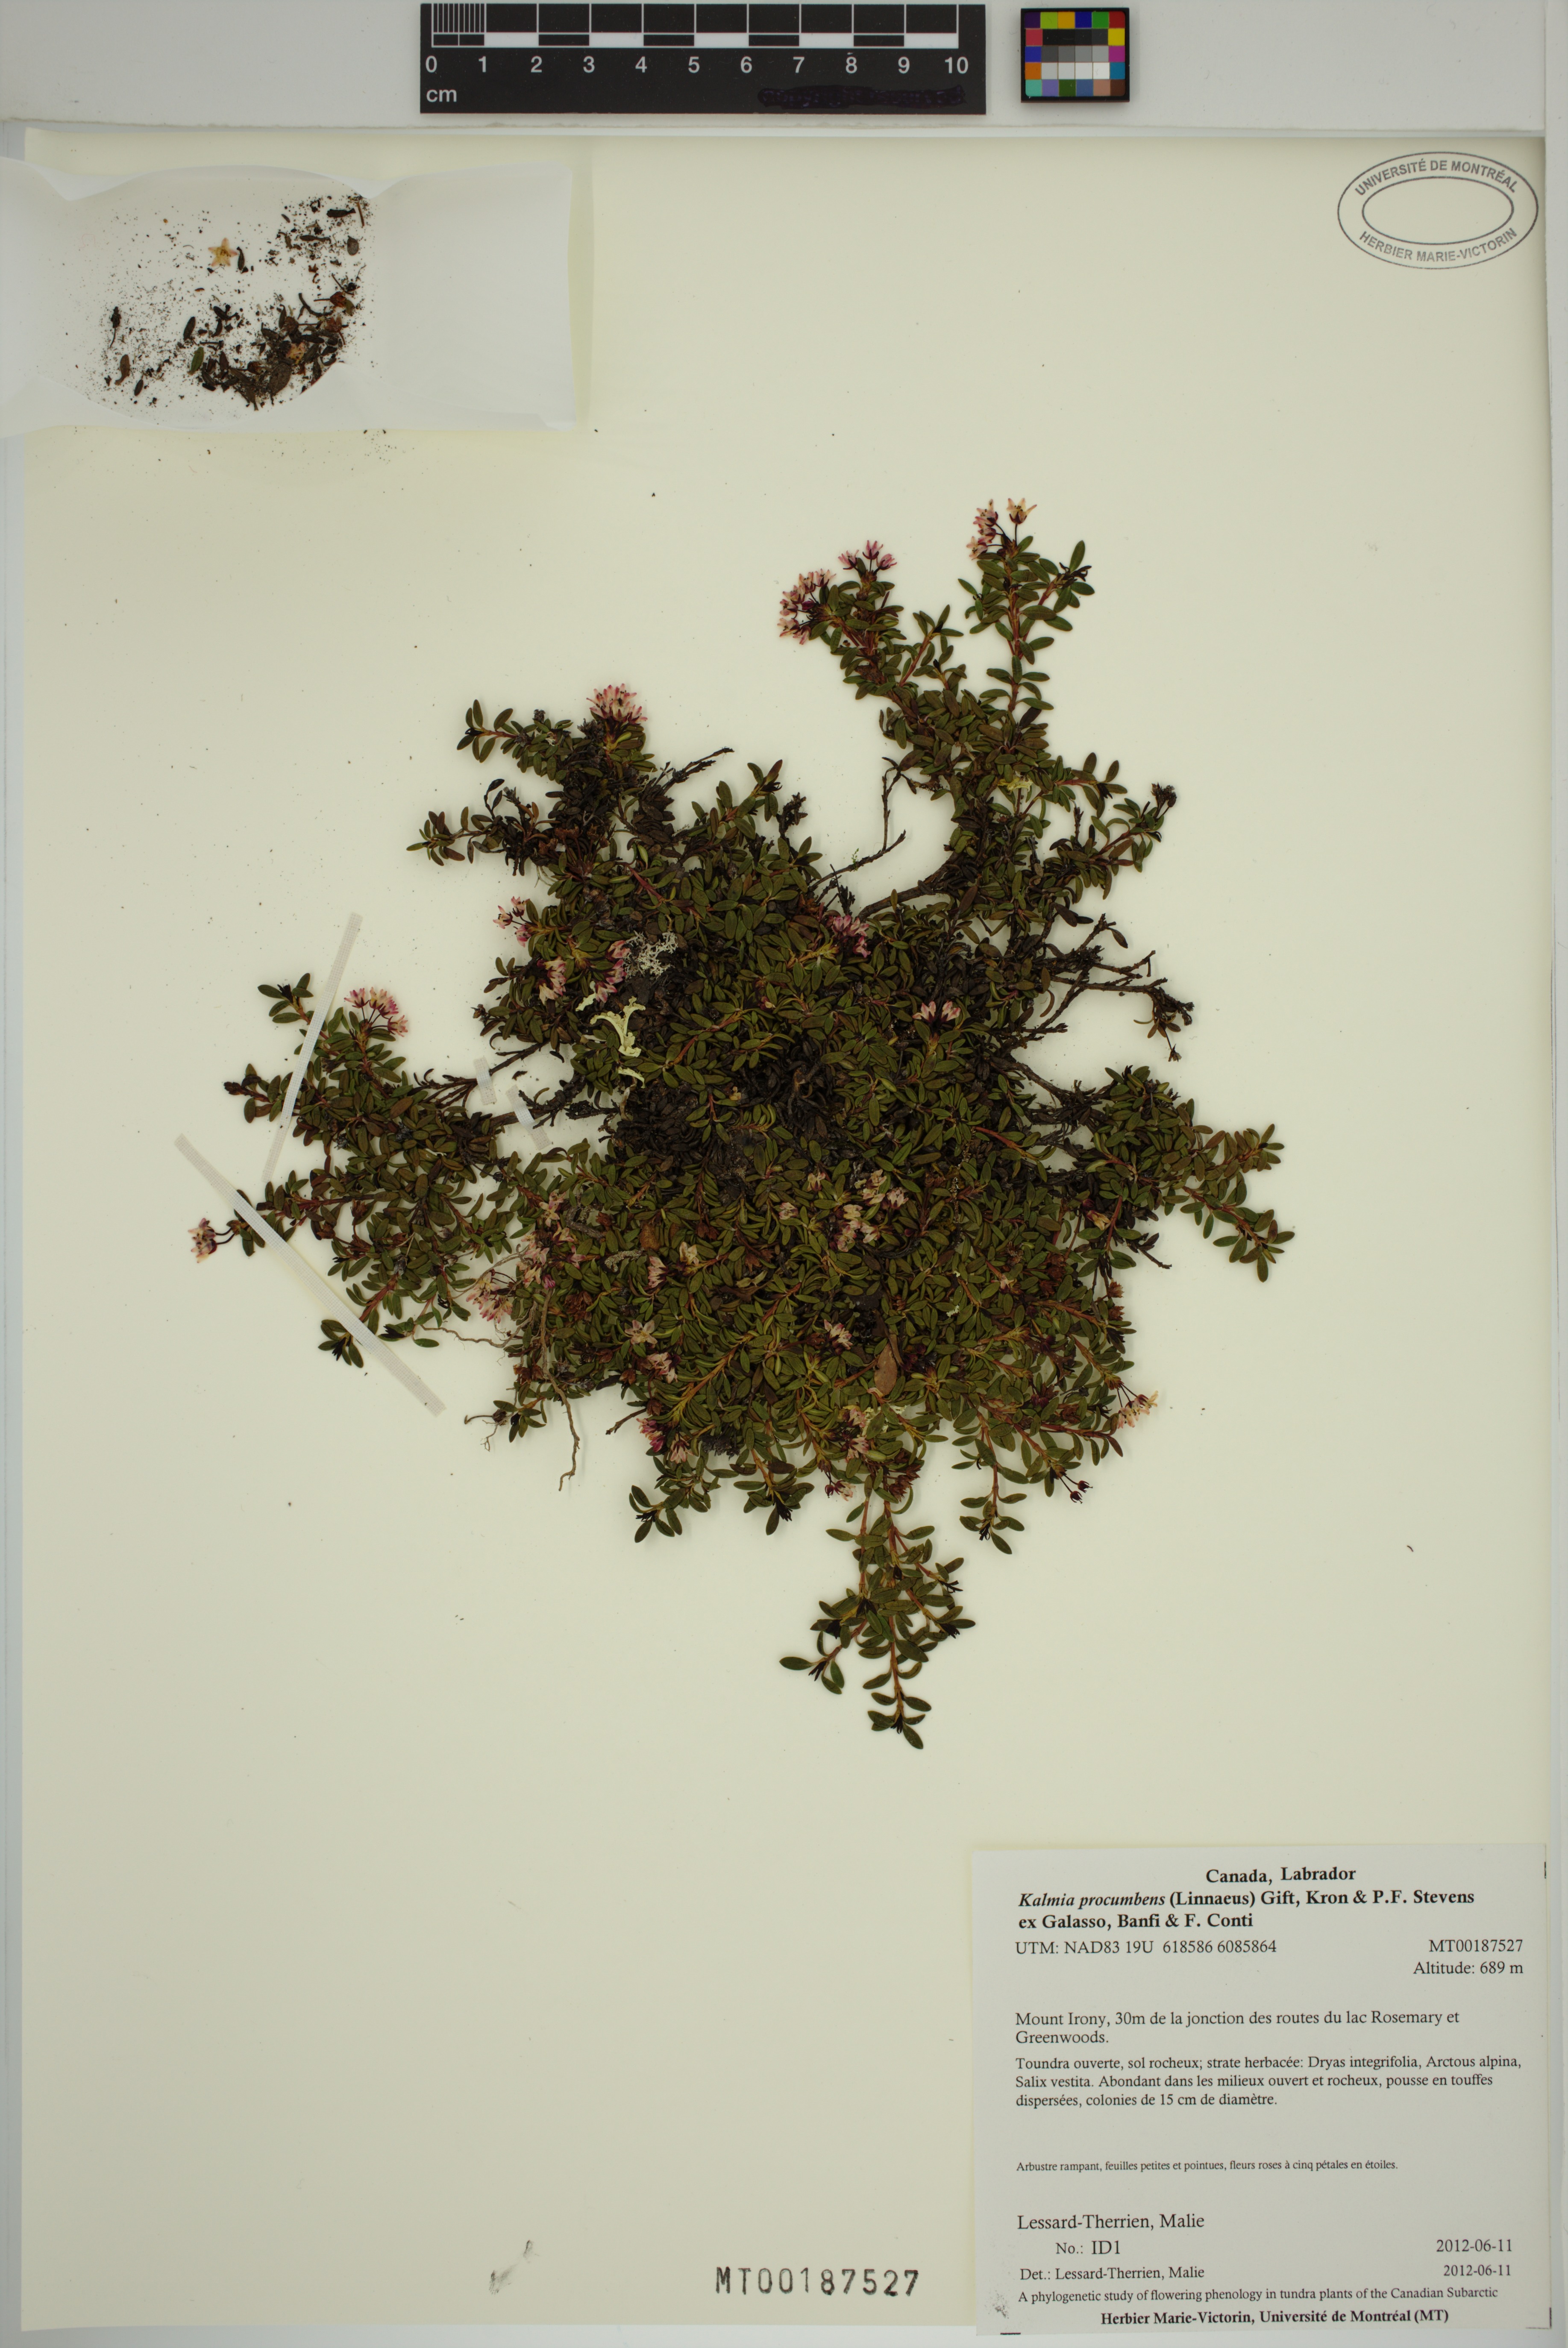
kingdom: Plantae
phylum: Tracheophyta
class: Magnoliopsida
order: Ericales
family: Ericaceae
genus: Kalmia
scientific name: Kalmia procumbens
